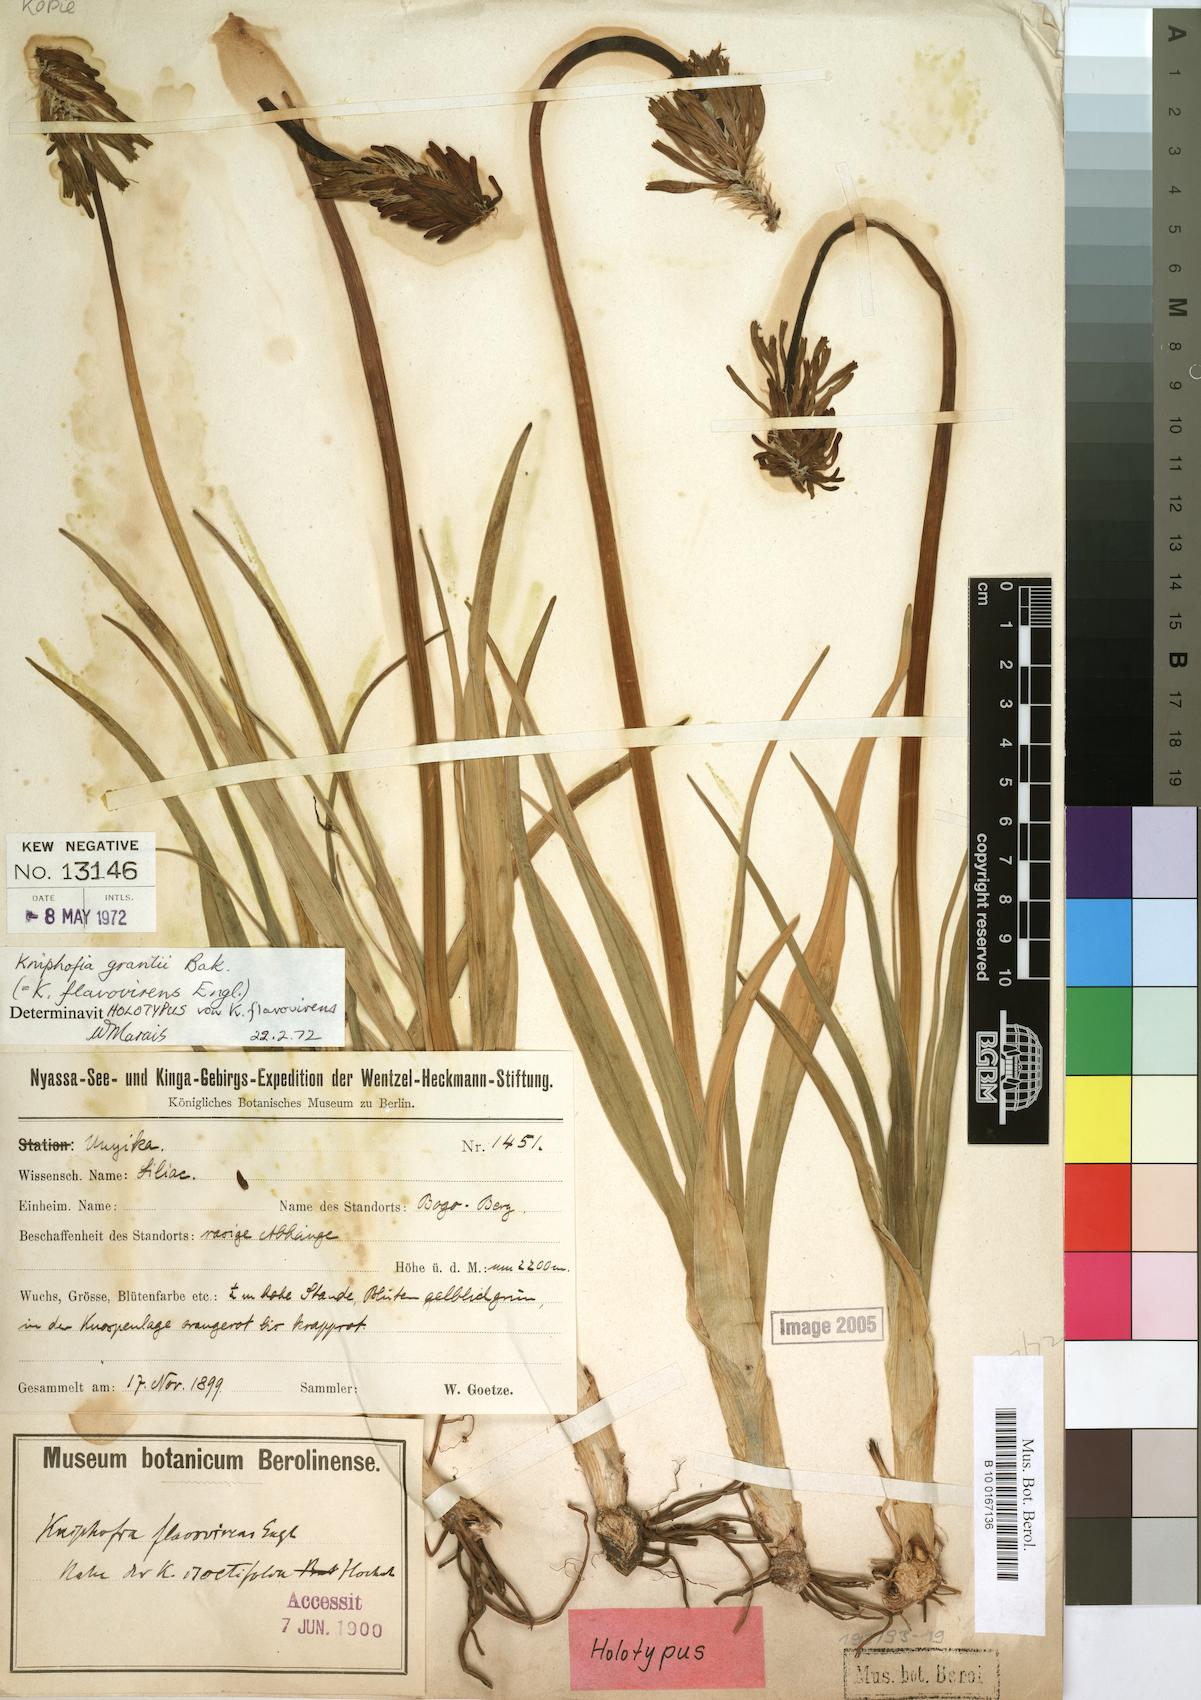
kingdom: Plantae
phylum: Tracheophyta
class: Liliopsida
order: Asparagales
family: Asphodelaceae
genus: Kniphofia
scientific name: Kniphofia grantii
